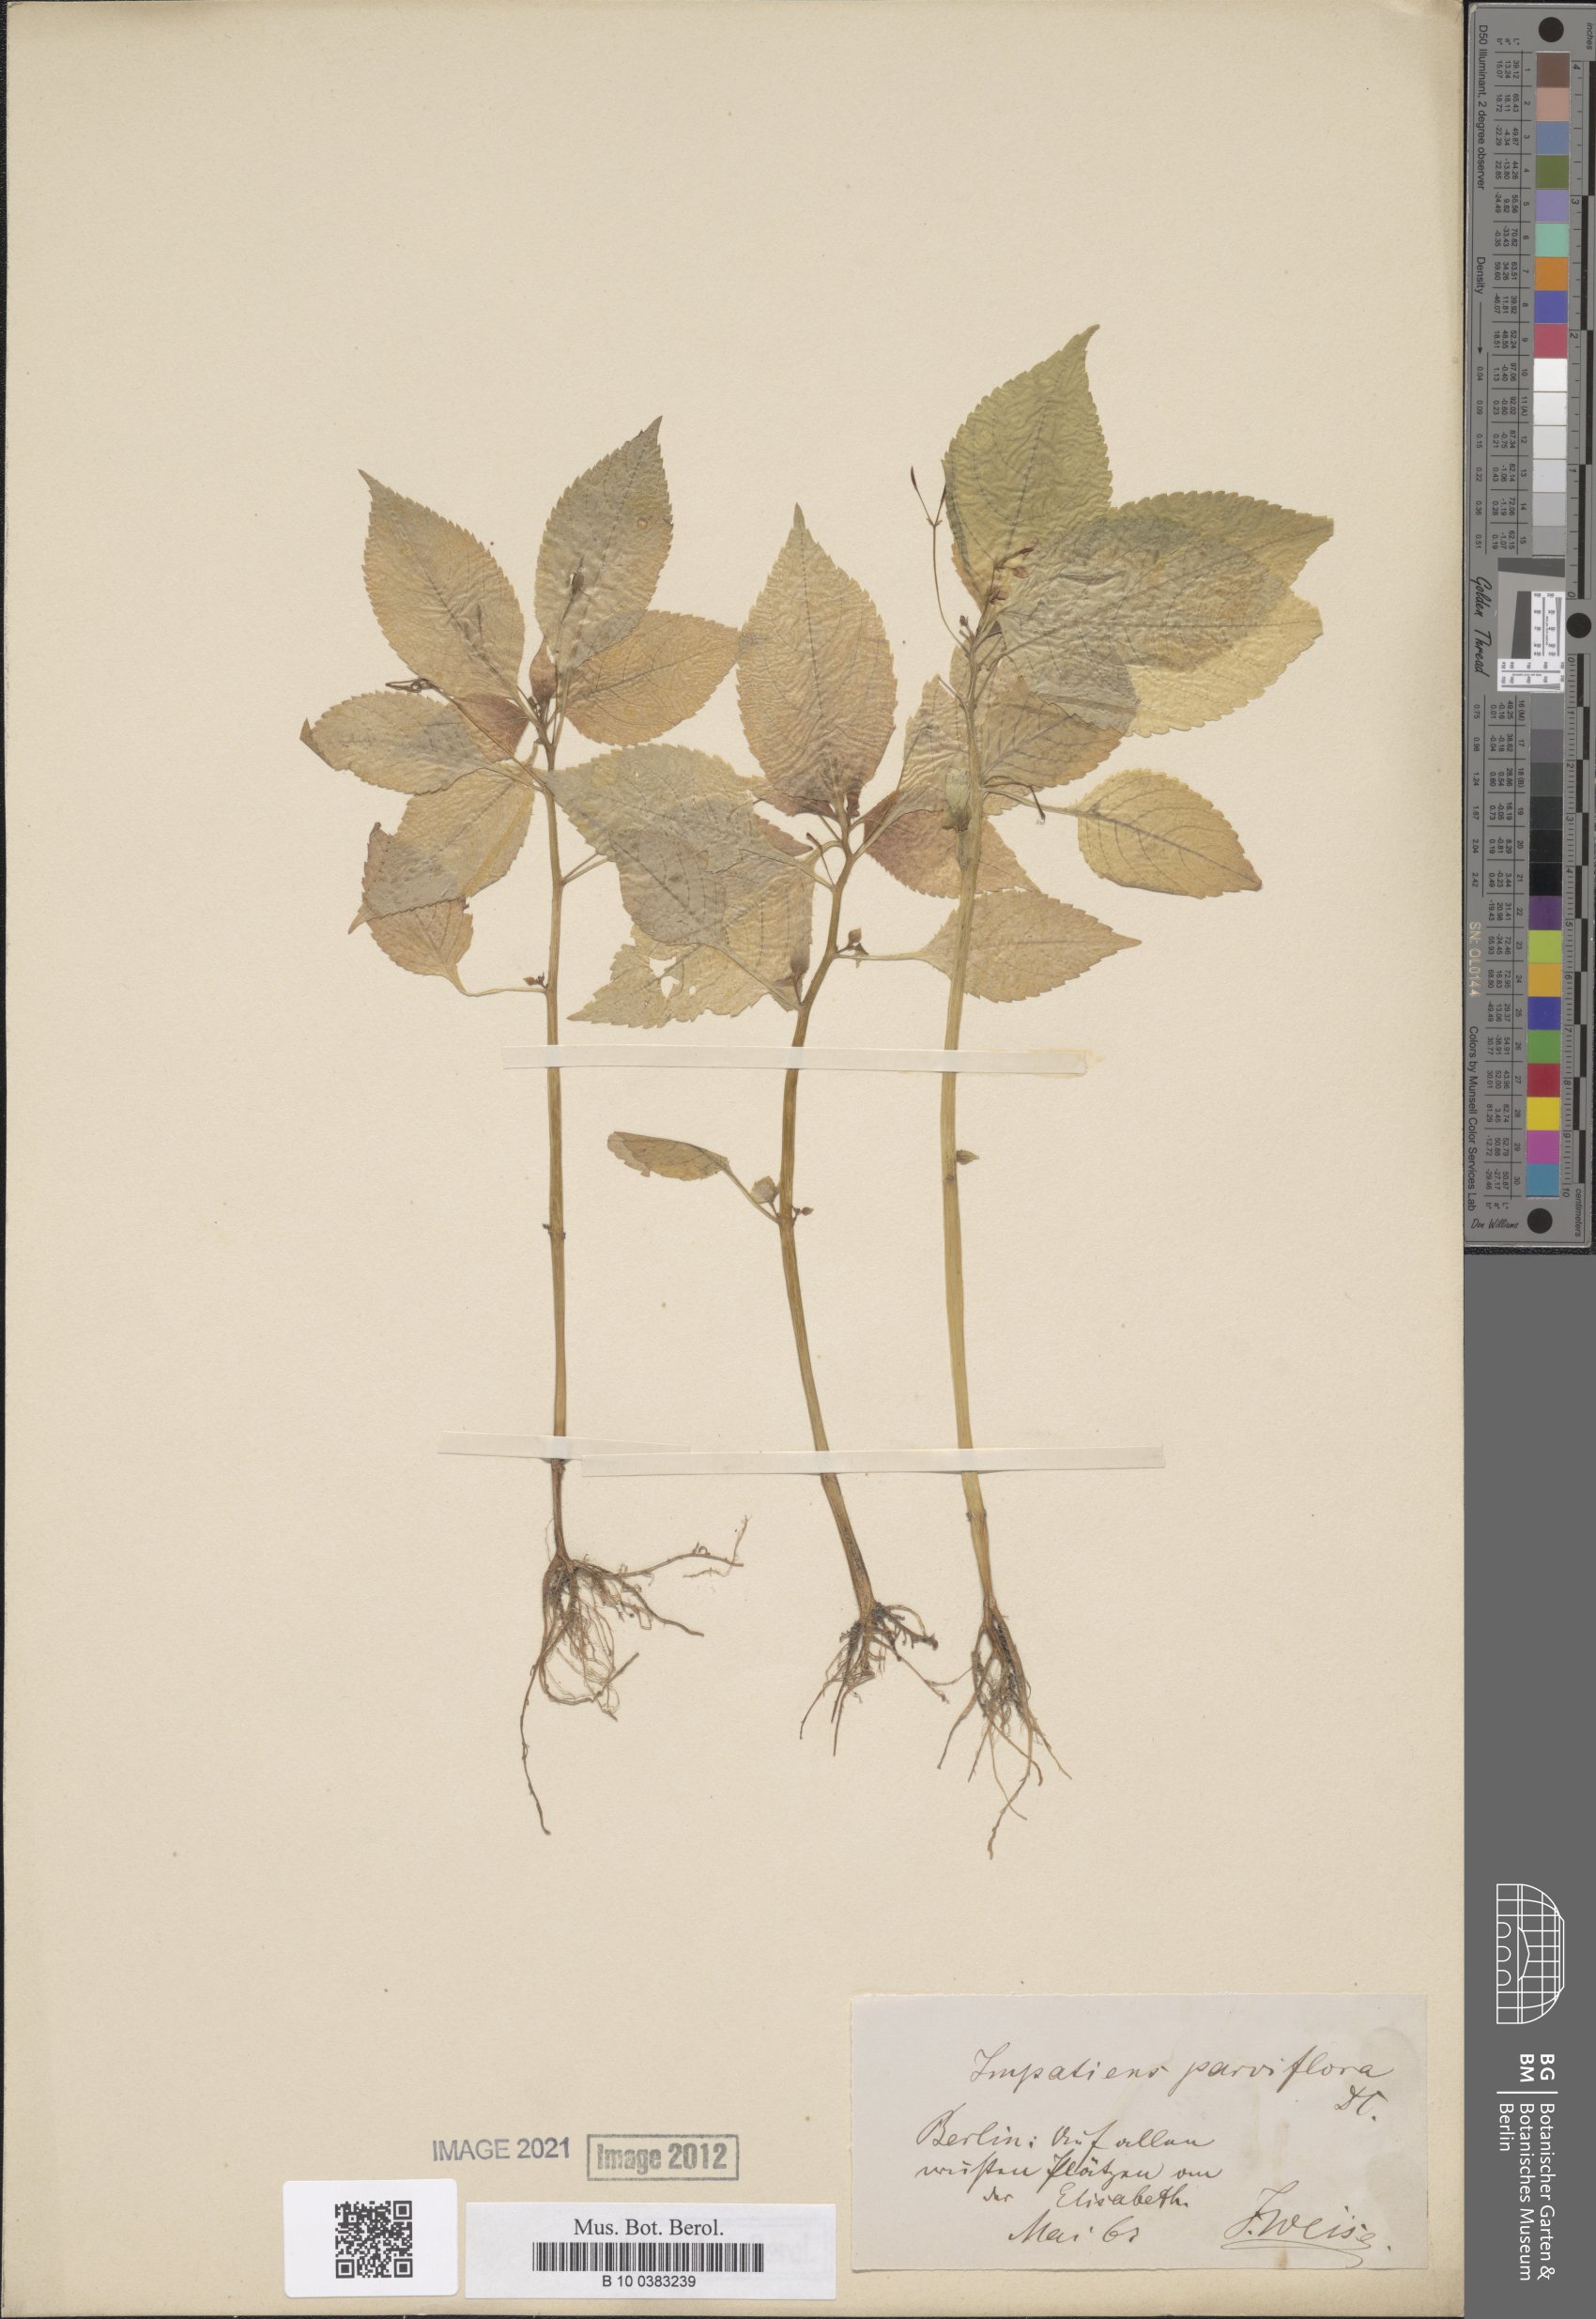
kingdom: Plantae
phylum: Tracheophyta
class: Magnoliopsida
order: Ericales
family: Balsaminaceae
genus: Impatiens
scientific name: Impatiens parviflora
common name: Small balsam
